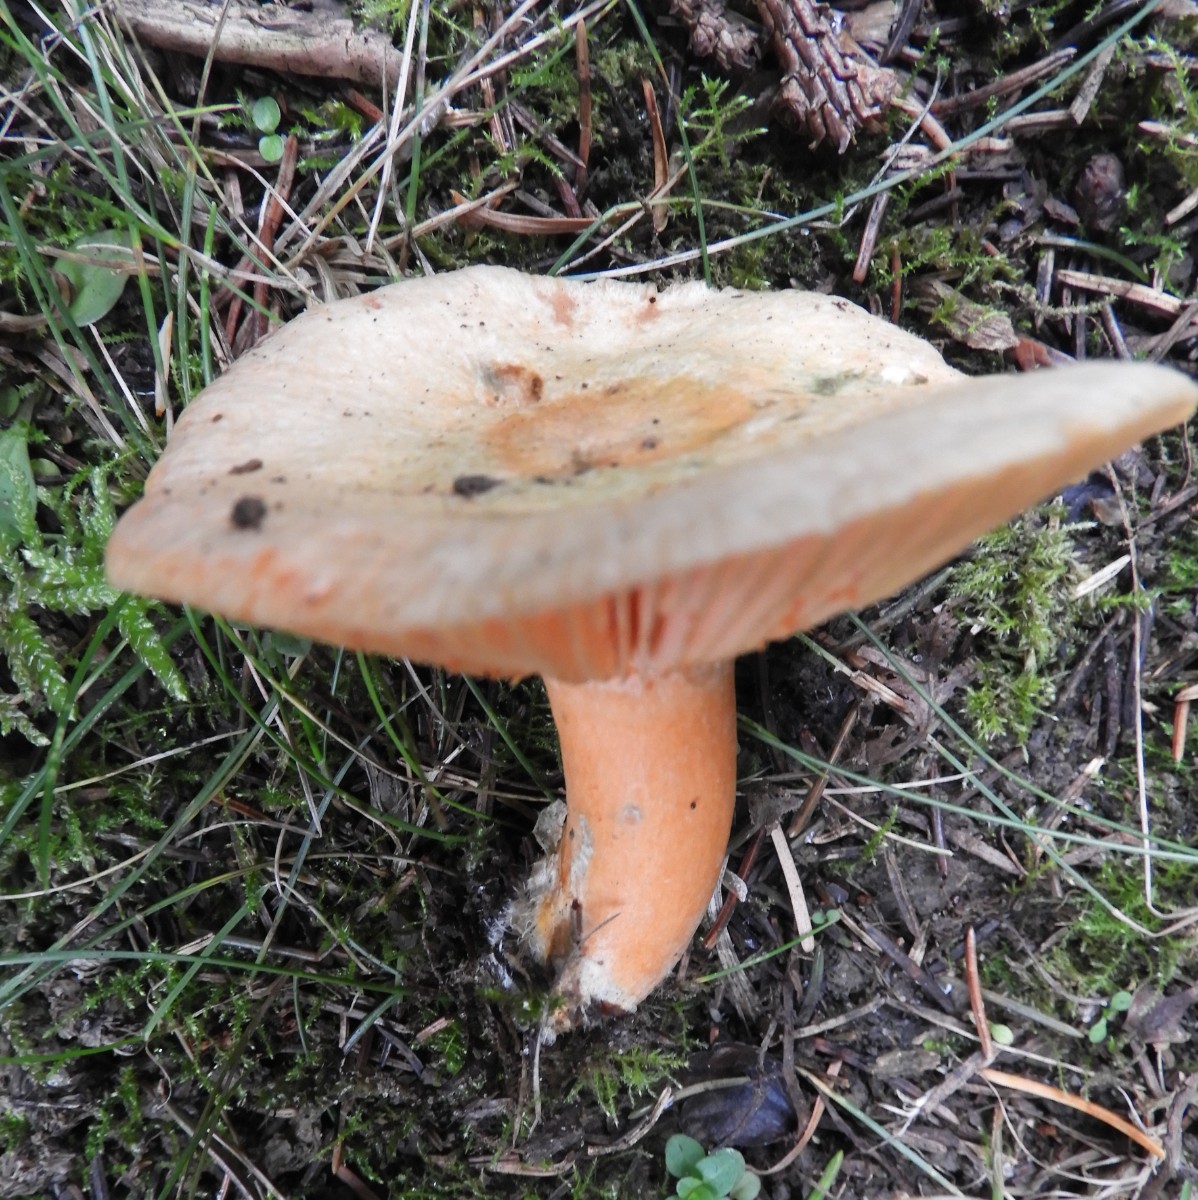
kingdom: Fungi
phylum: Basidiomycota
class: Agaricomycetes
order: Russulales
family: Russulaceae
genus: Lactarius
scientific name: Lactarius deterrimus
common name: gran-mælkehat
